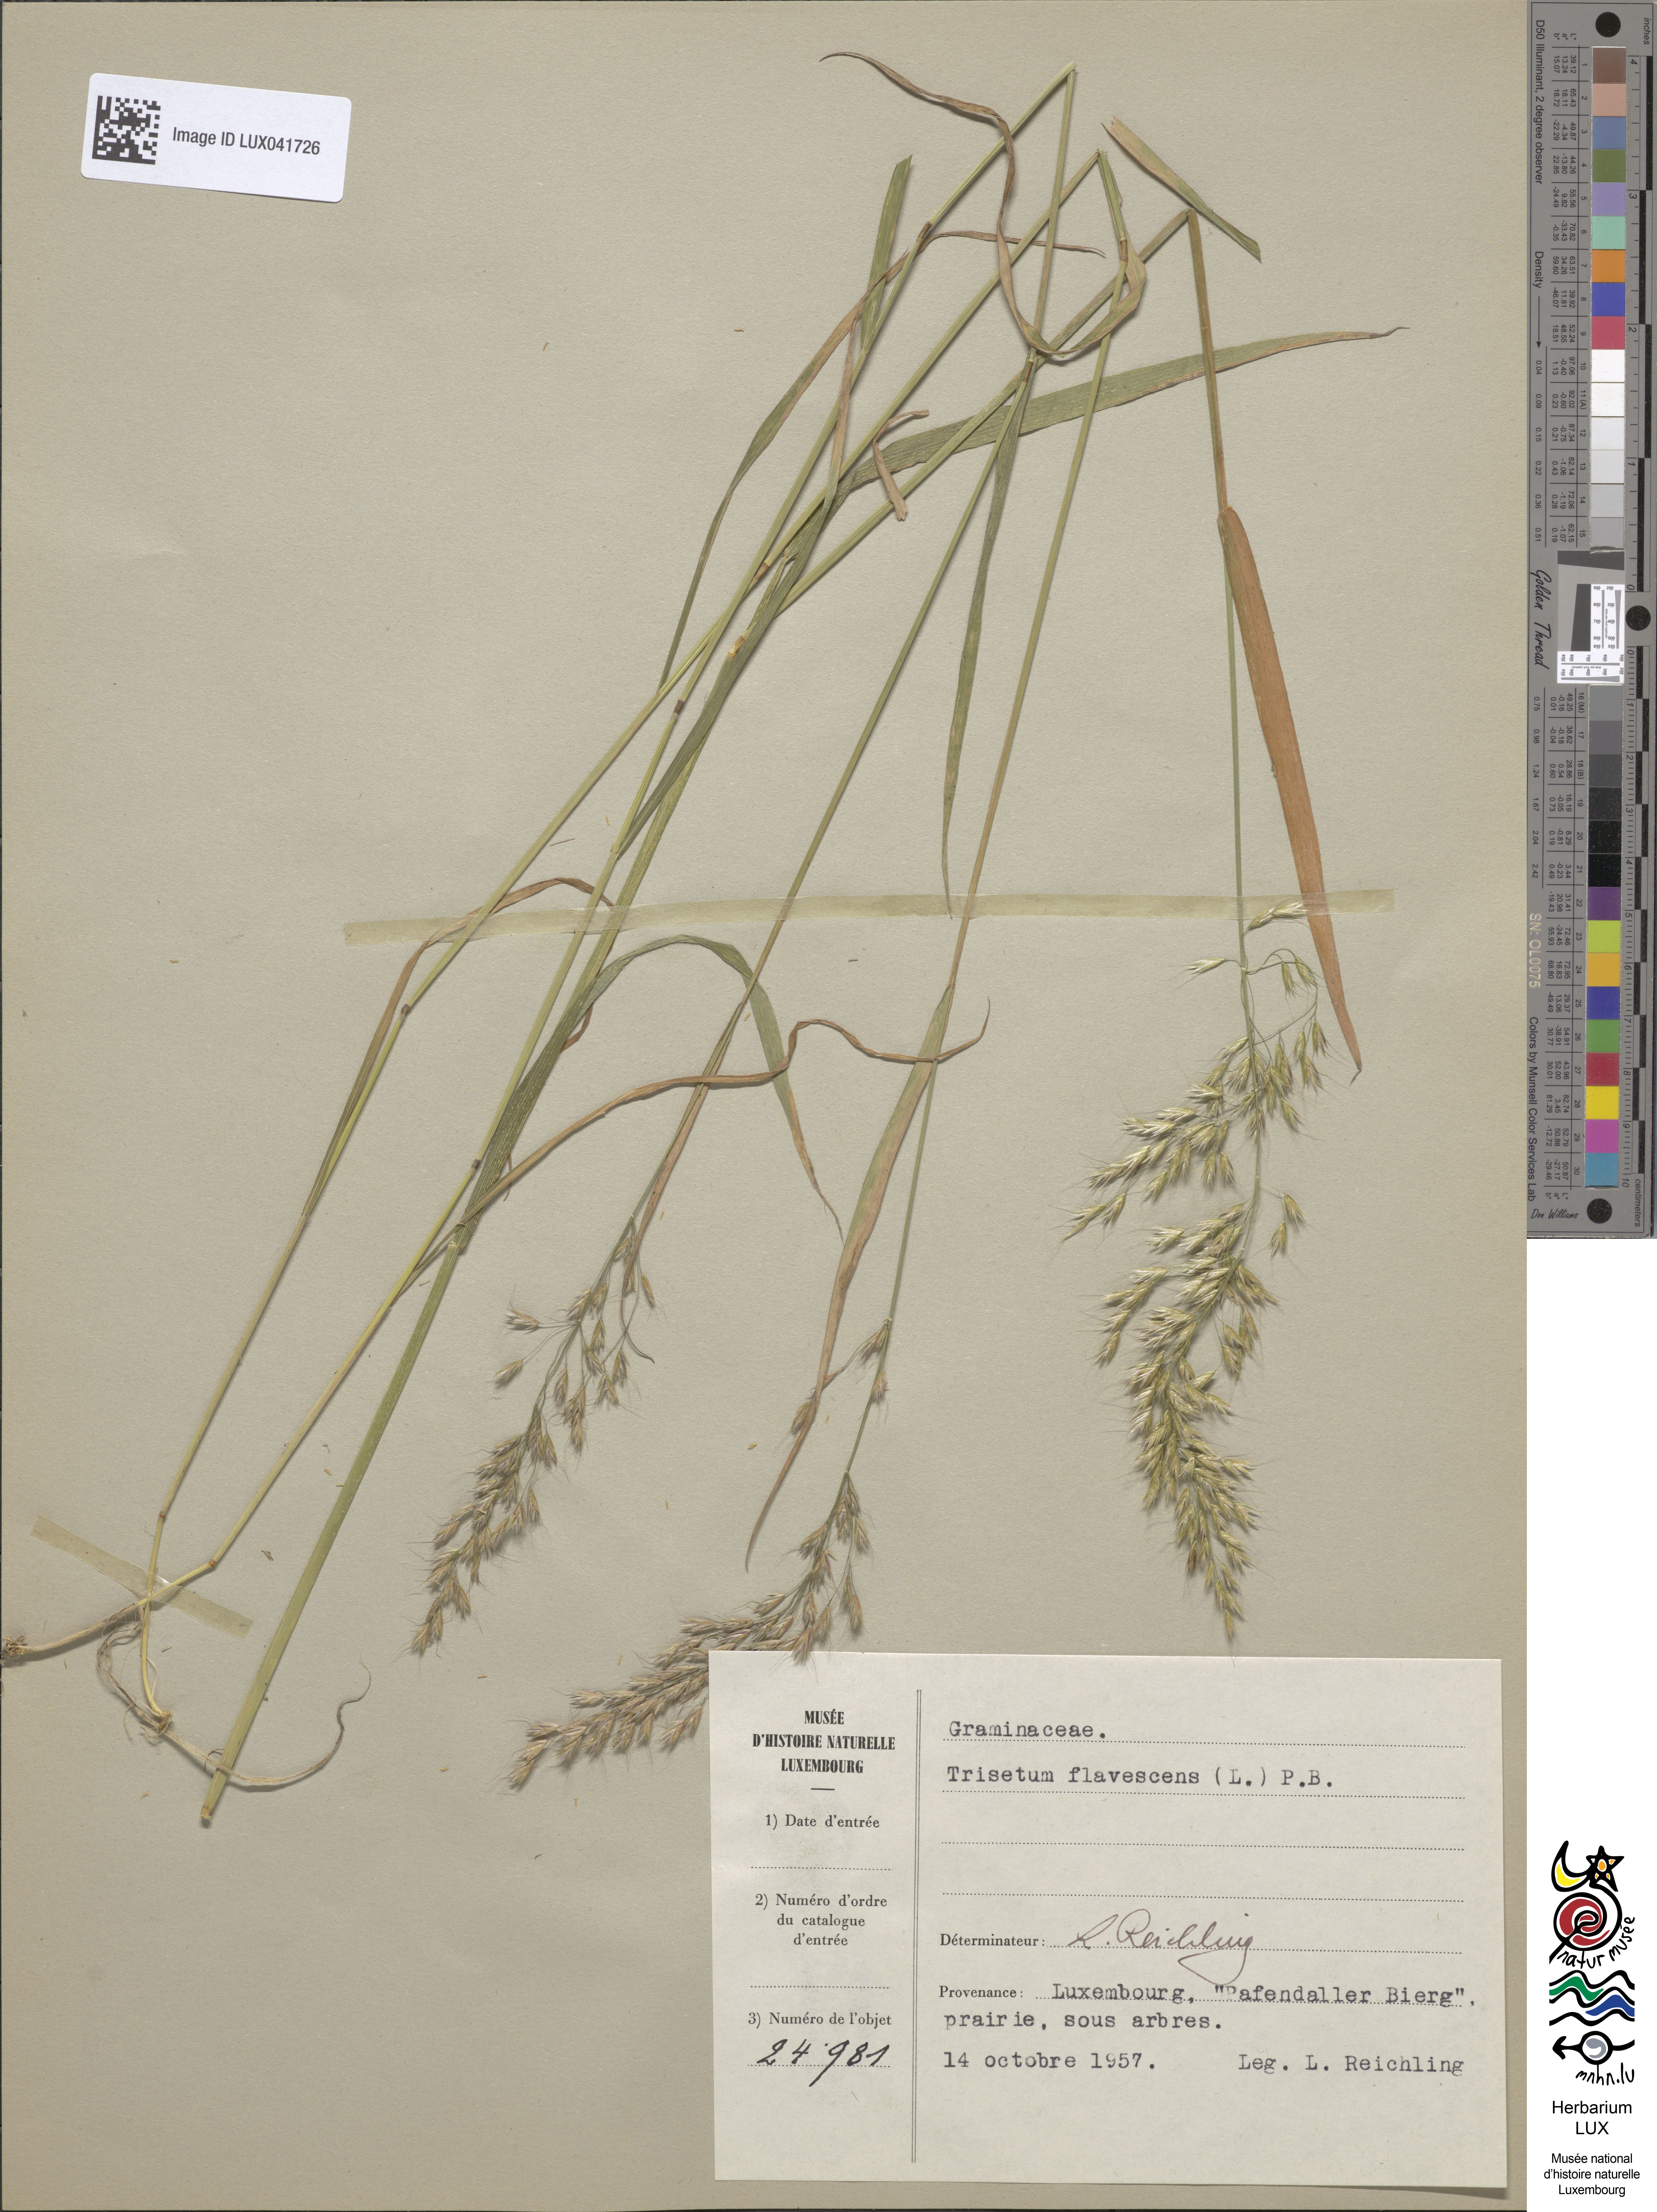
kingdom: Plantae
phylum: Tracheophyta
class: Liliopsida
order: Poales
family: Poaceae
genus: Trisetum
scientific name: Trisetum flavescens
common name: Yellow oat-grass
